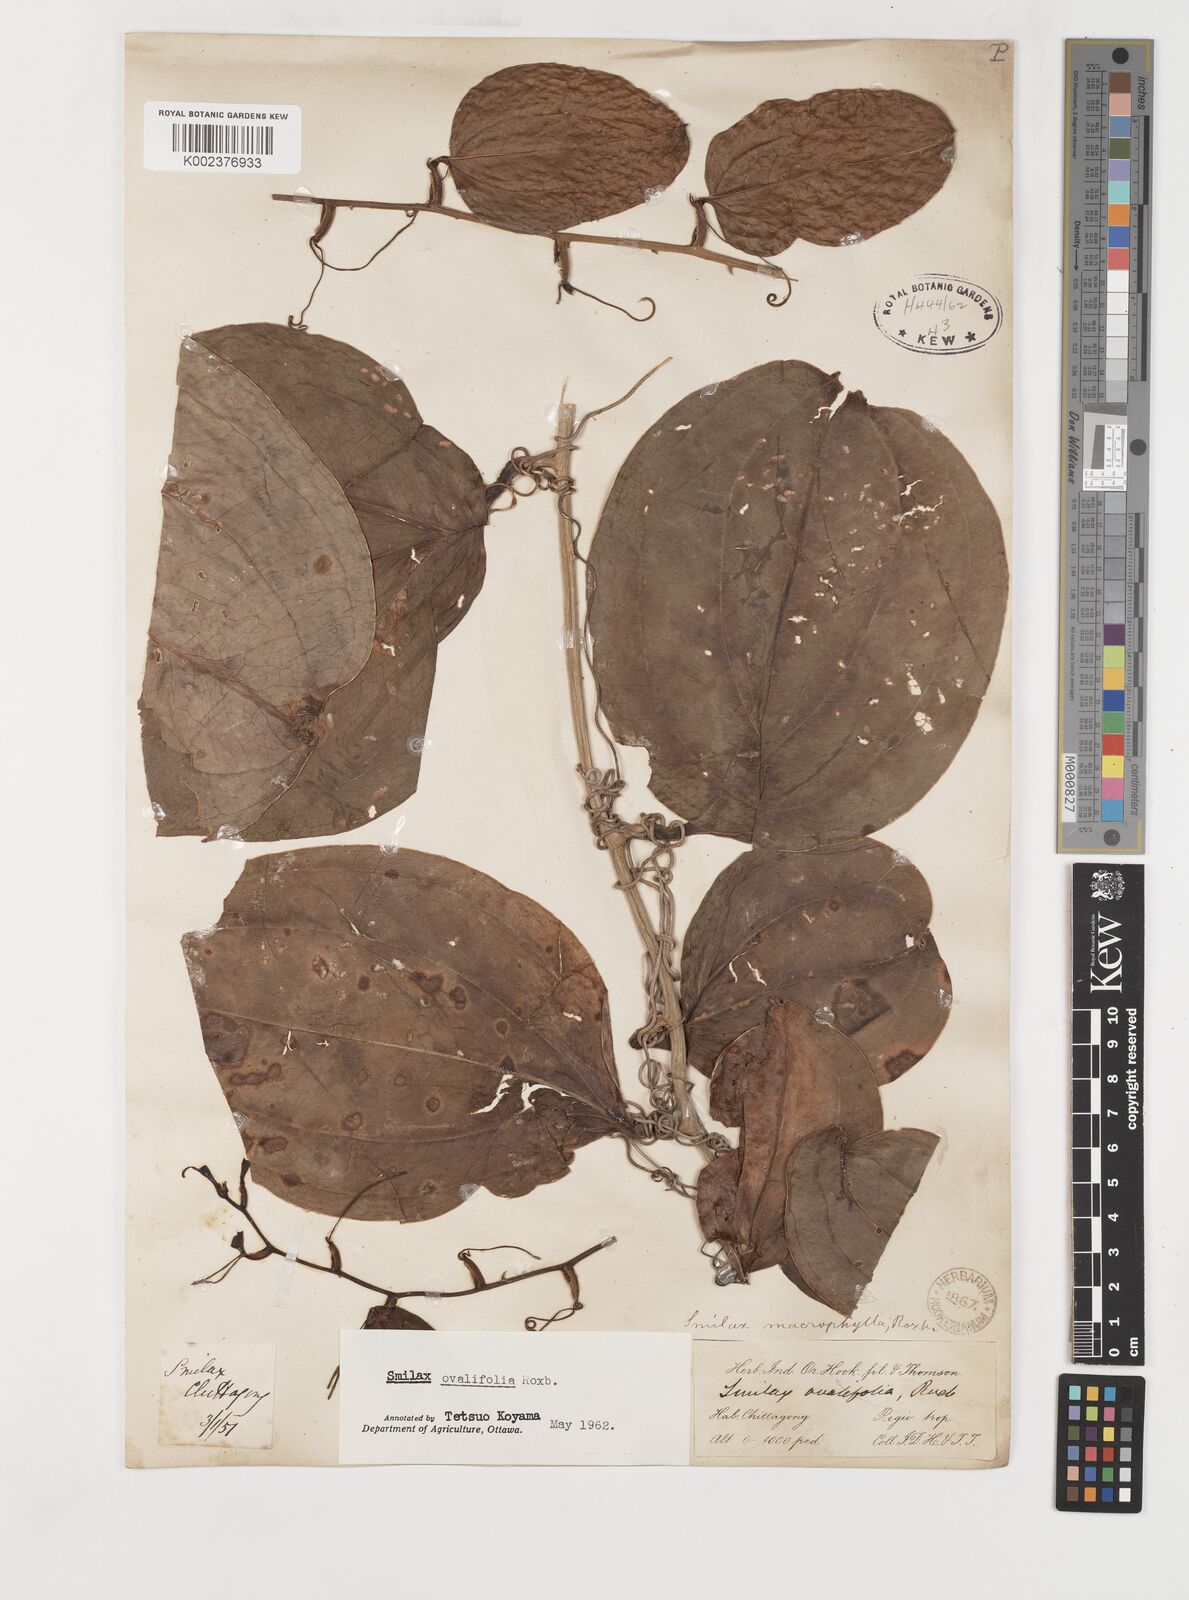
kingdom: Plantae
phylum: Tracheophyta
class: Liliopsida
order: Liliales
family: Smilacaceae
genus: Smilax
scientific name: Smilax ovalifolia
